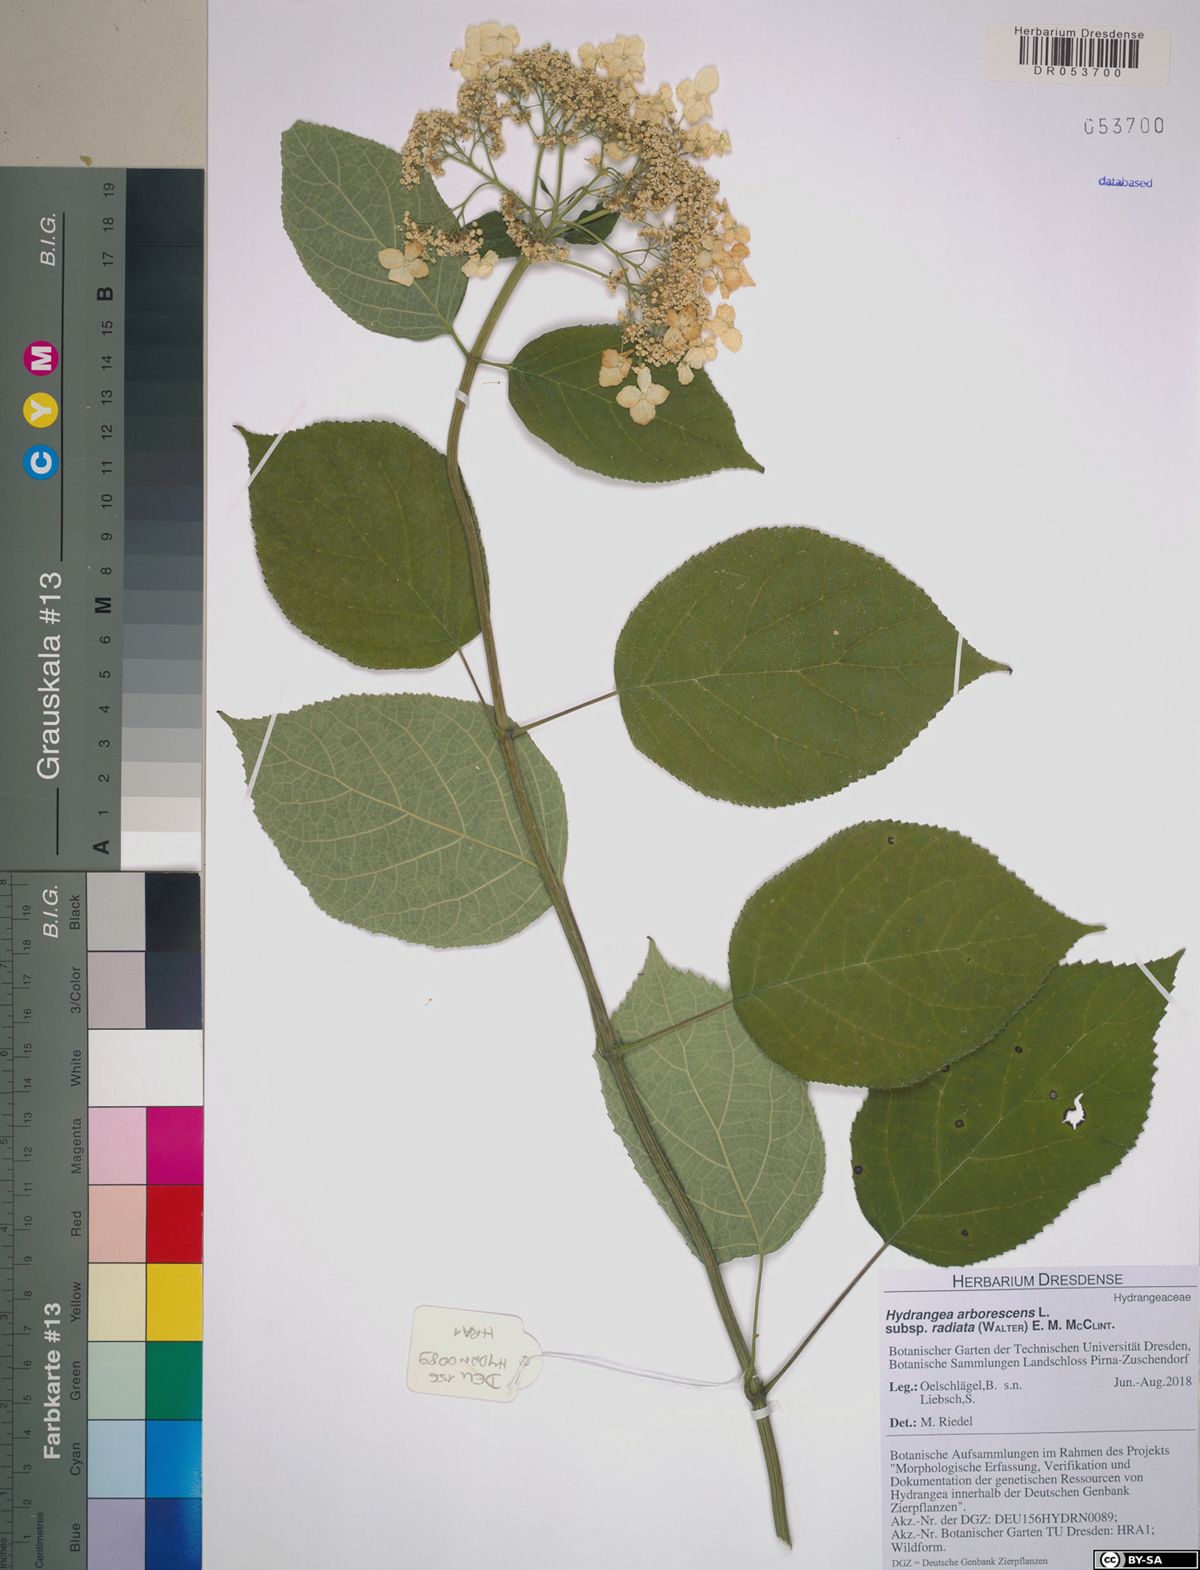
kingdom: Plantae
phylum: Tracheophyta
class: Magnoliopsida
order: Cornales
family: Hydrangeaceae
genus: Hydrangea
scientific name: Hydrangea radiata
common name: Silverleaf hydrangea
